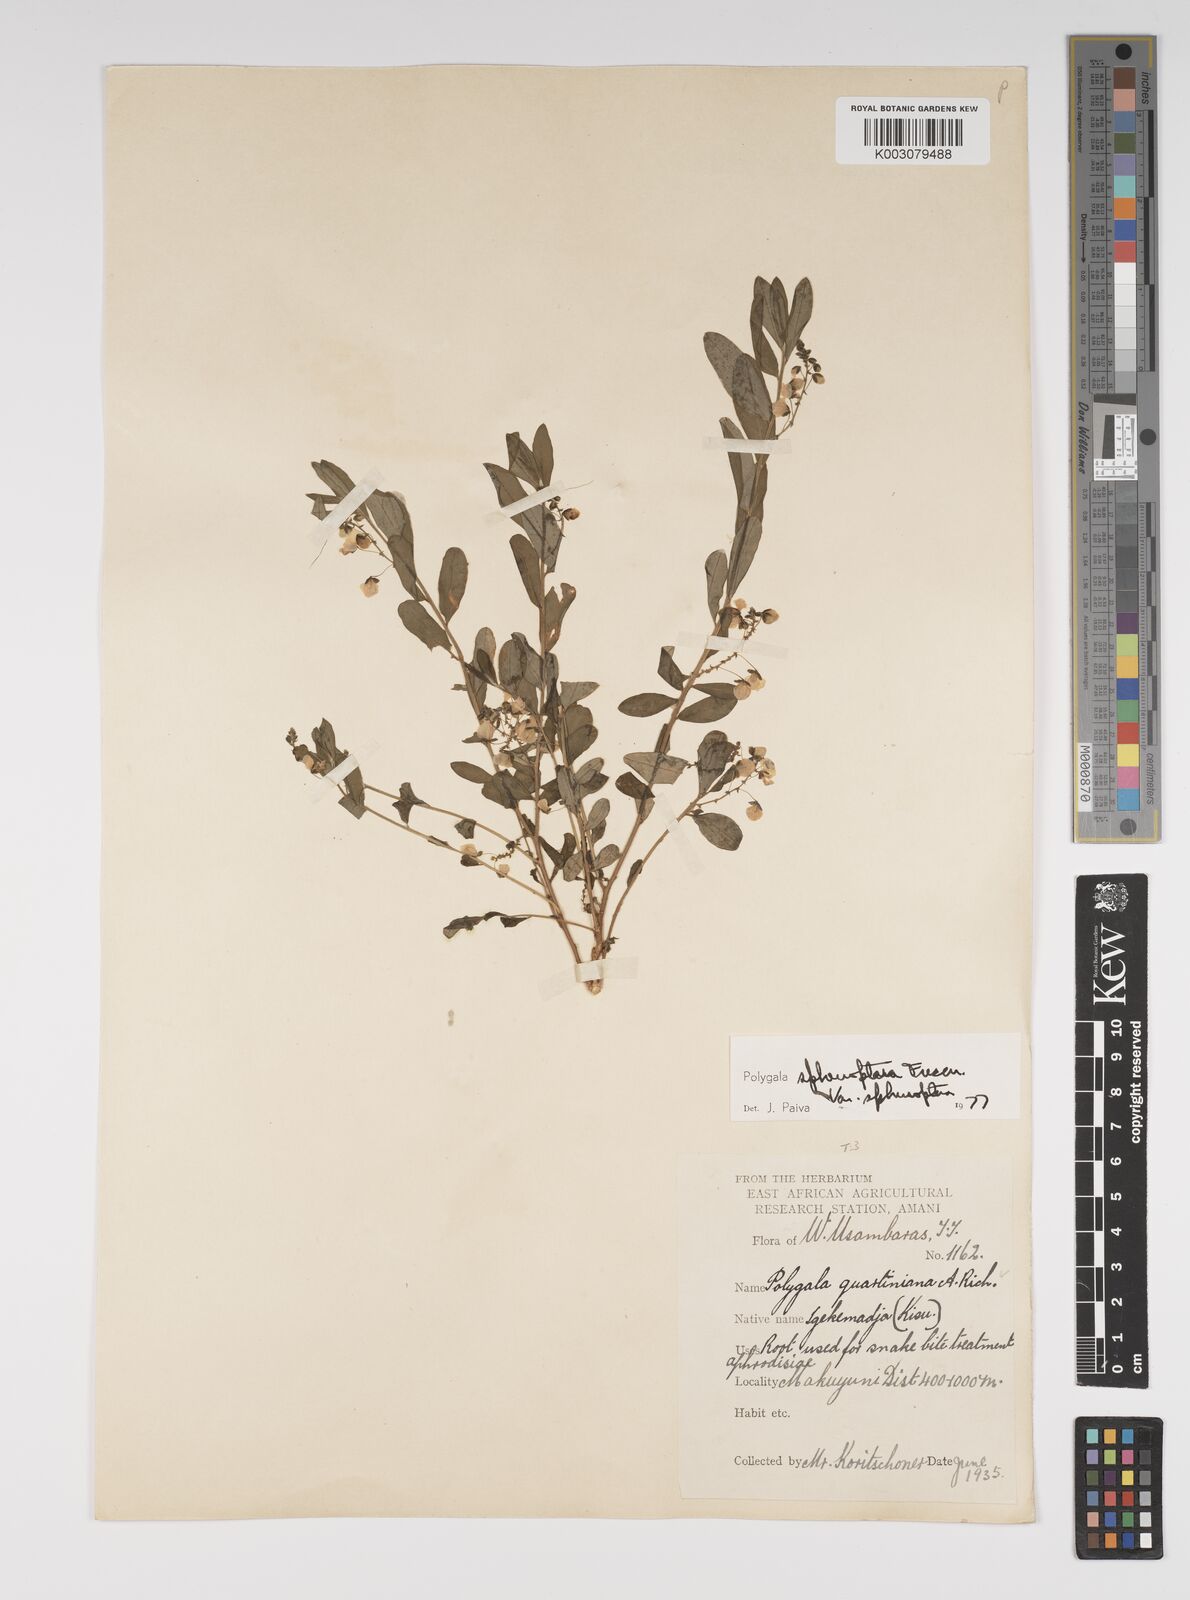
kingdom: Plantae
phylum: Tracheophyta
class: Magnoliopsida
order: Fabales
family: Polygalaceae
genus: Polygala
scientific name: Polygala sphenoptera
